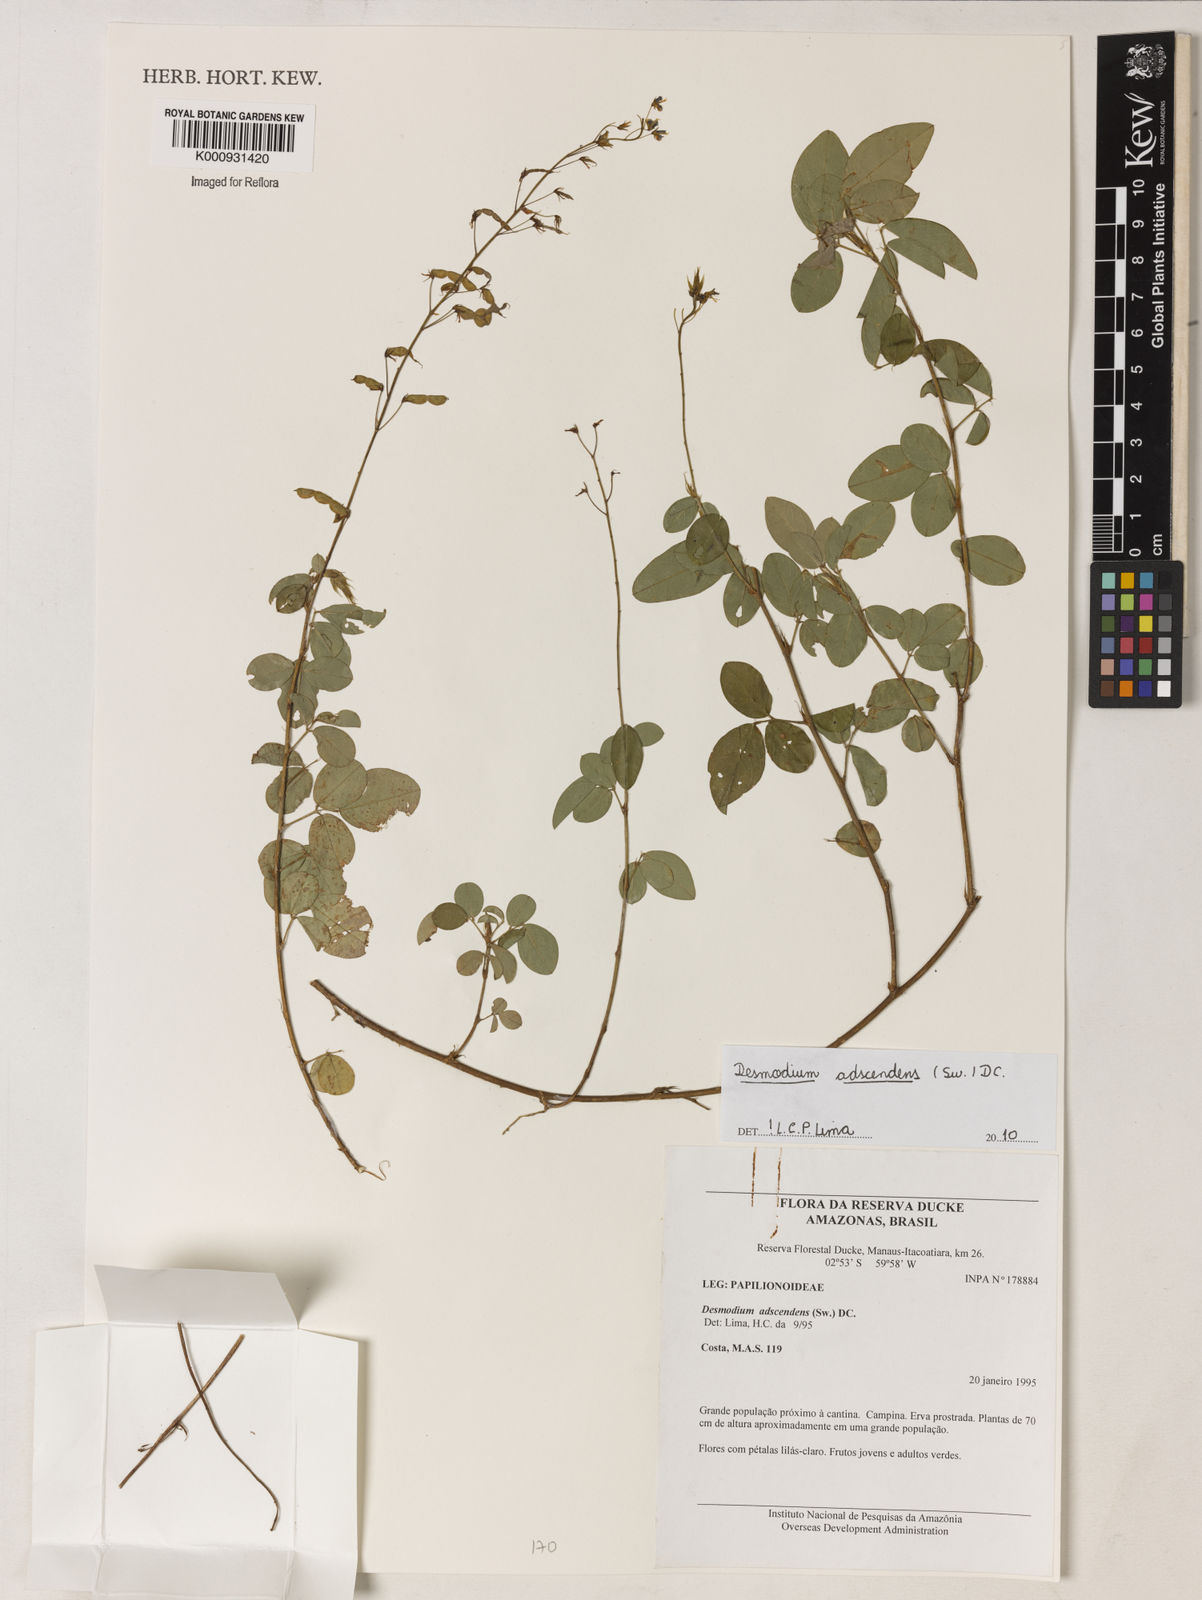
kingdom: Plantae
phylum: Tracheophyta
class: Magnoliopsida
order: Fabales
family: Fabaceae
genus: Grona
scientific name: Grona adscendens
